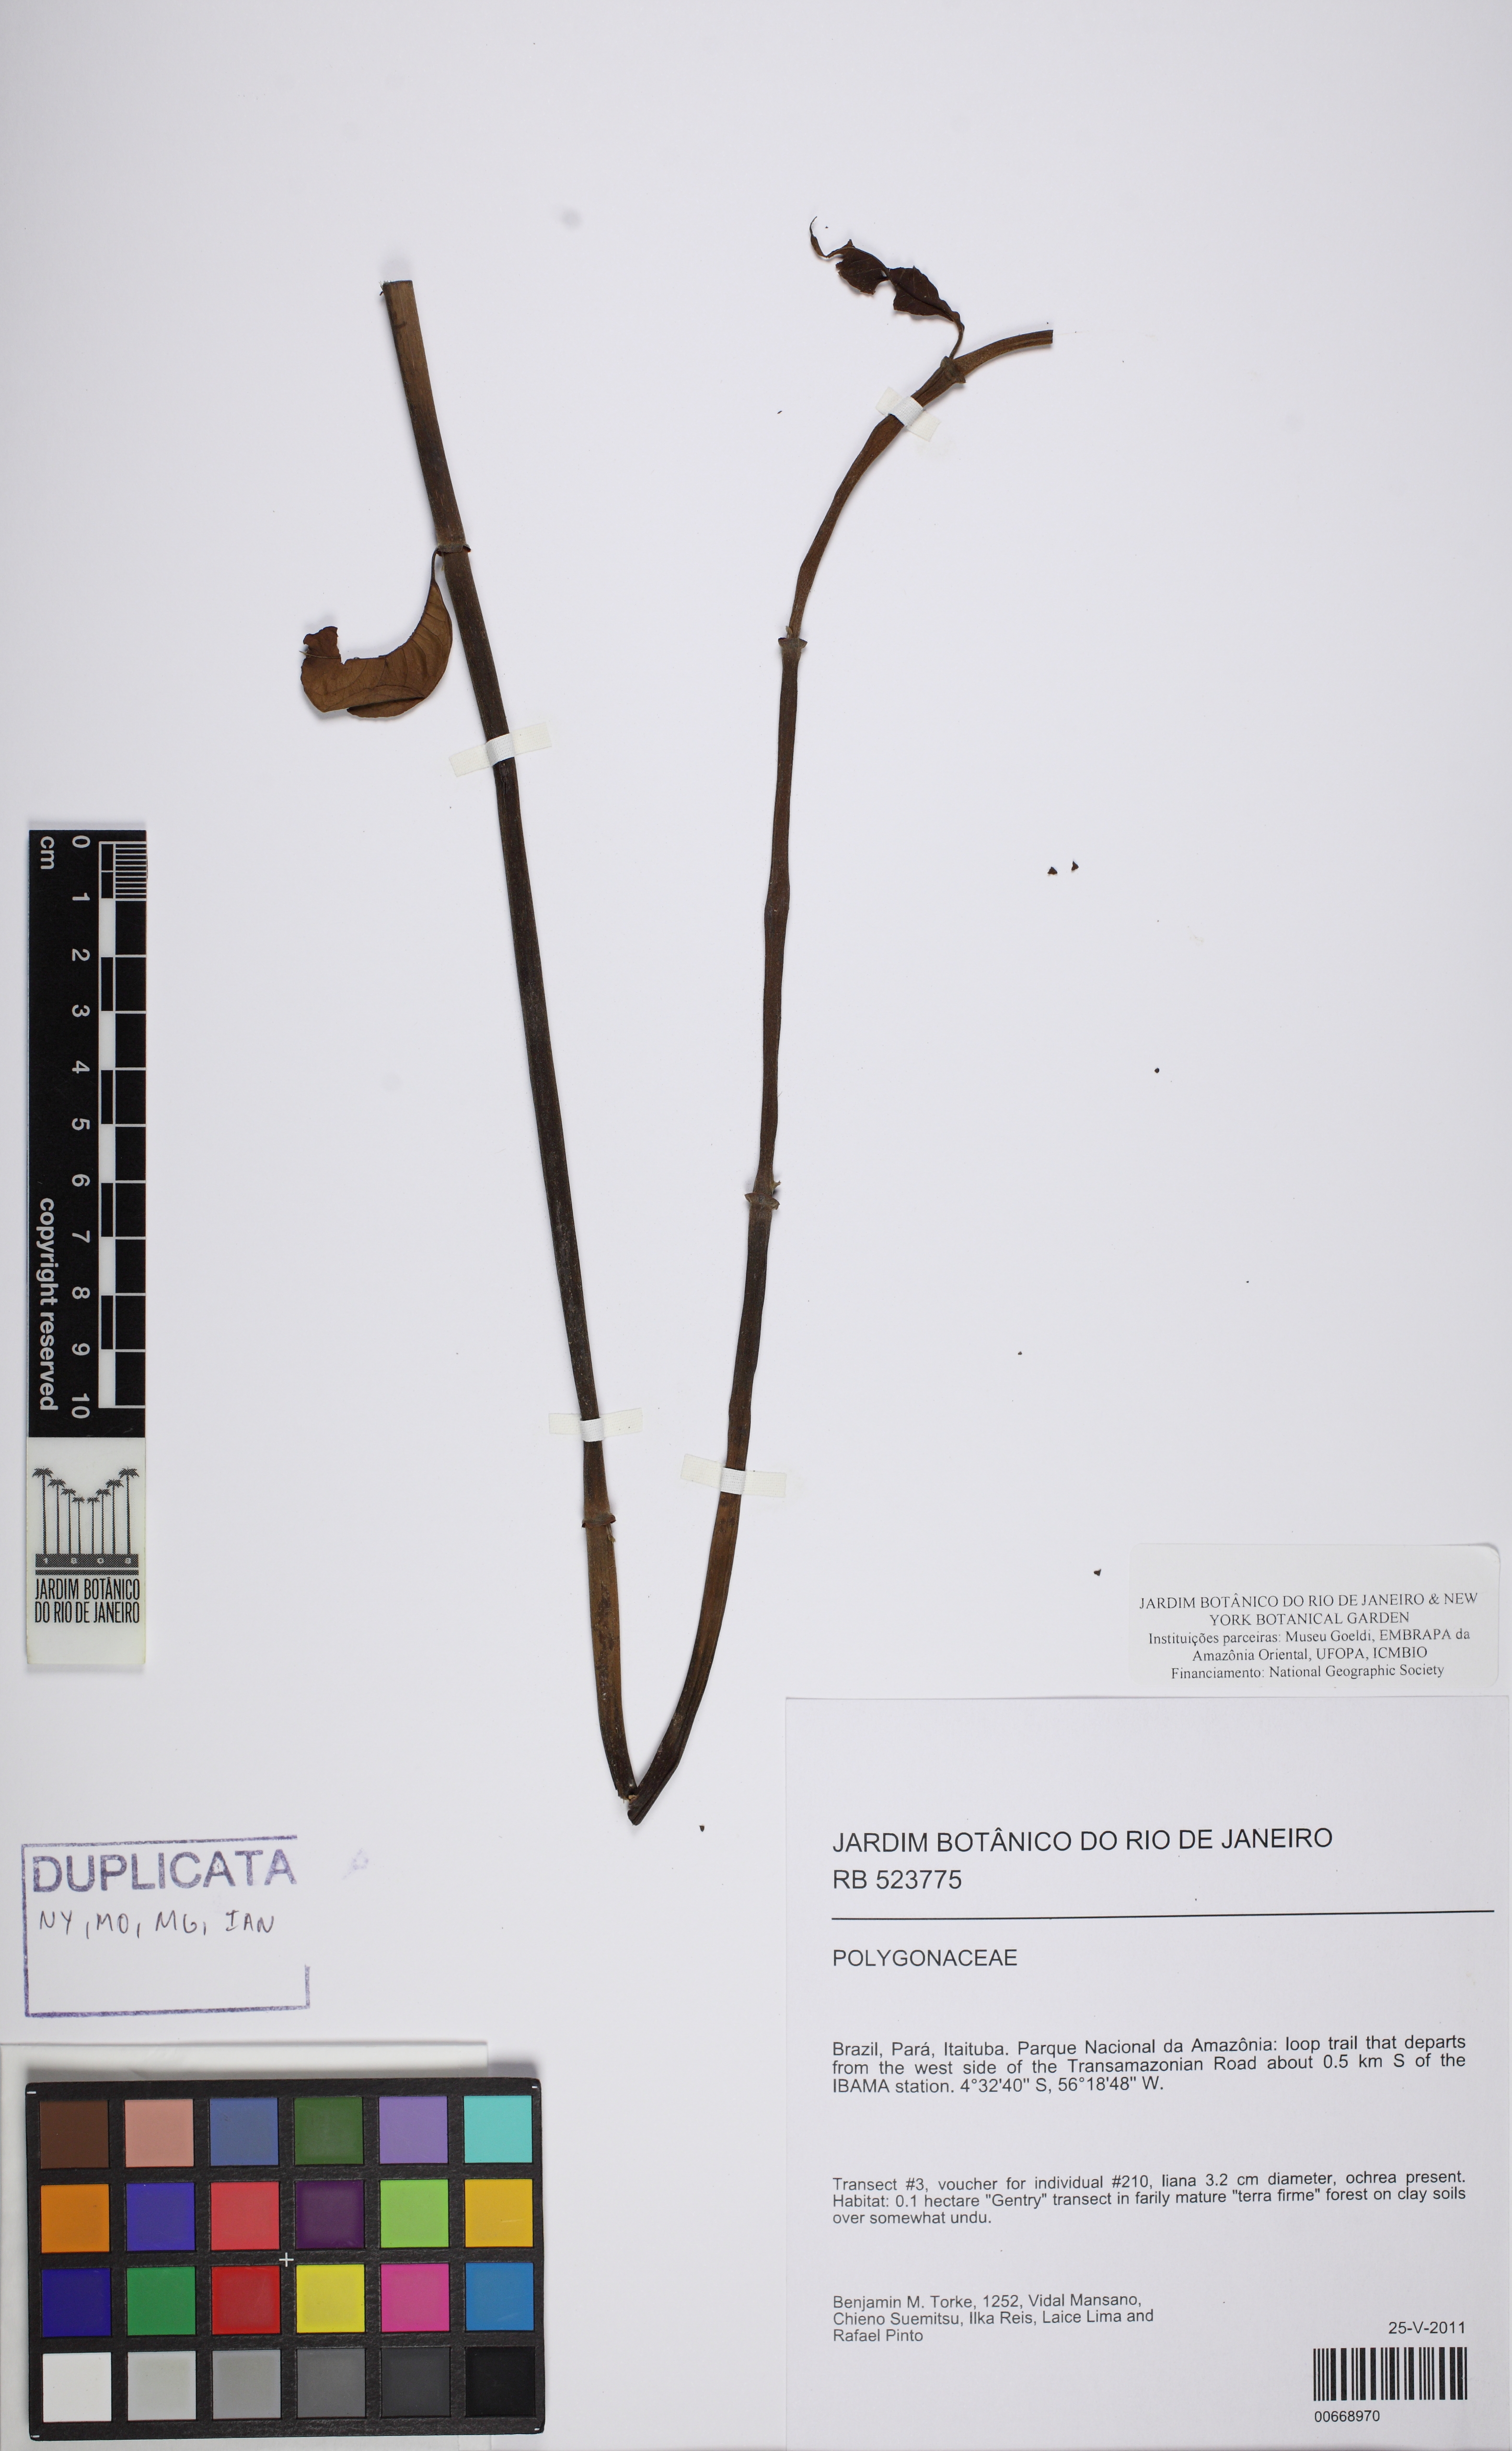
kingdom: Plantae
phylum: Tracheophyta
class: Magnoliopsida
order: Caryophyllales
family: Polygonaceae
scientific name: Polygonaceae
